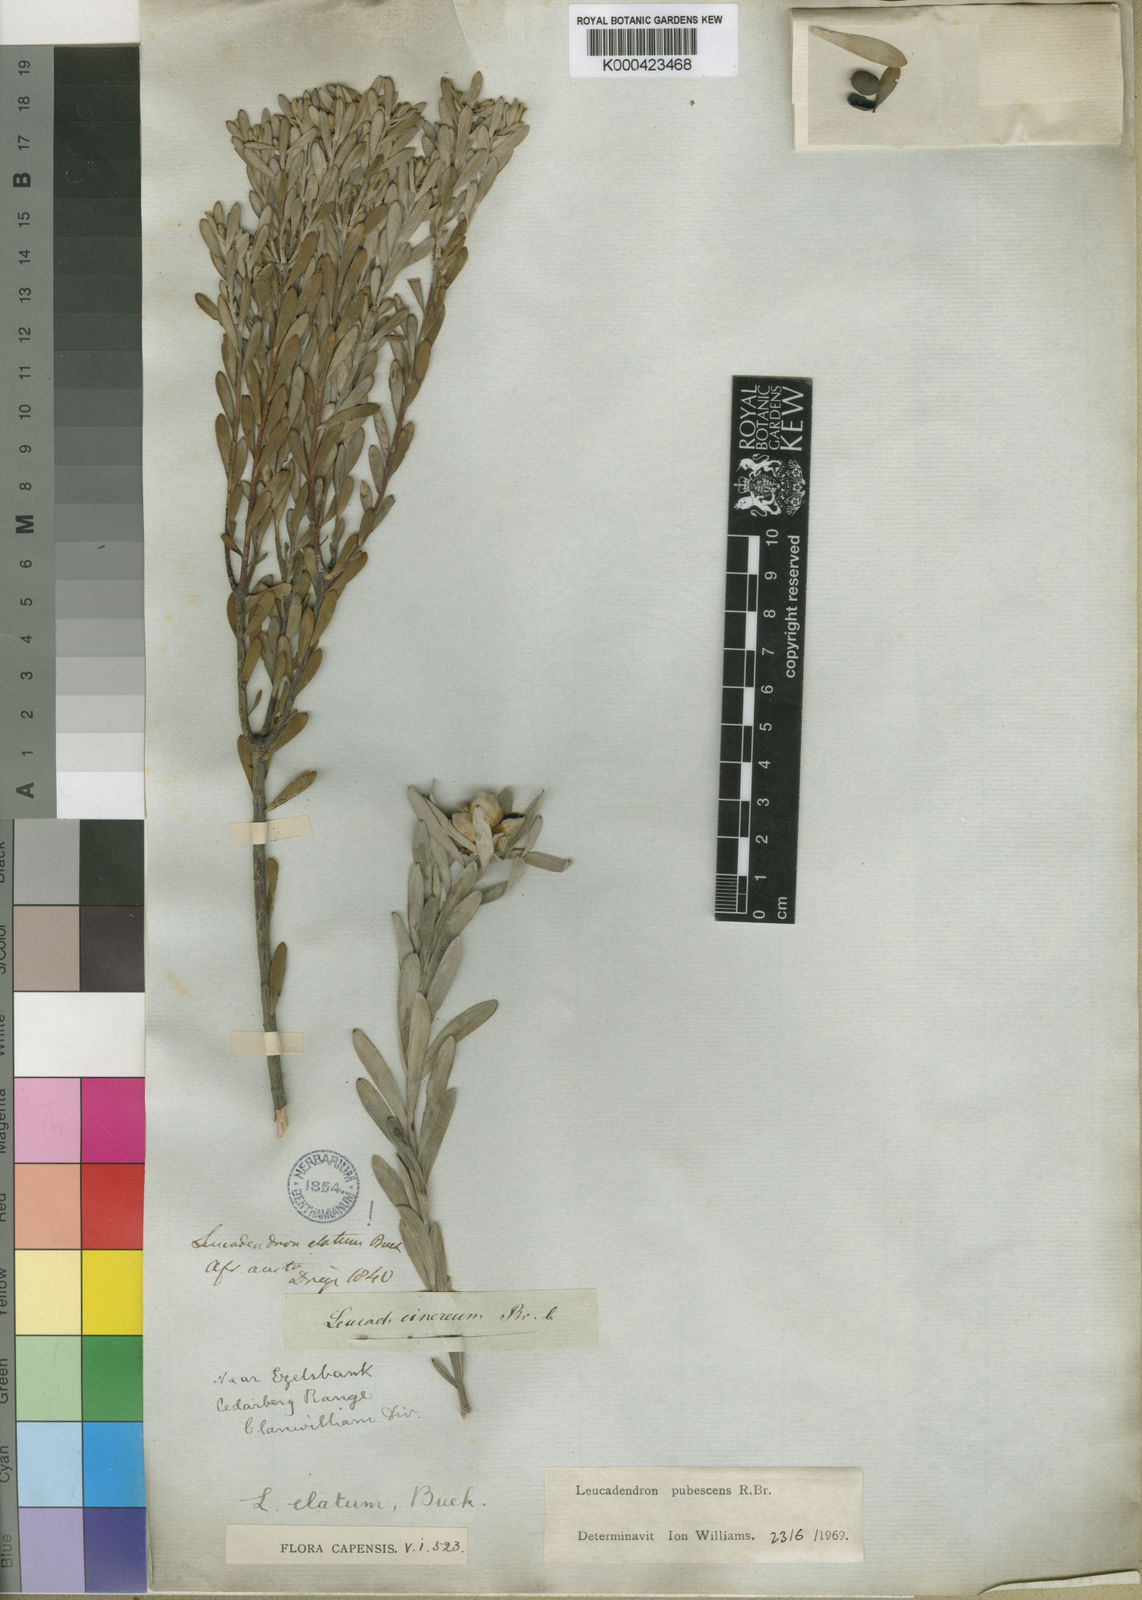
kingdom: Plantae
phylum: Tracheophyta
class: Magnoliopsida
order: Proteales
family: Proteaceae
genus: Leucadendron
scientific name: Leucadendron pubescens
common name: Grey conebush
